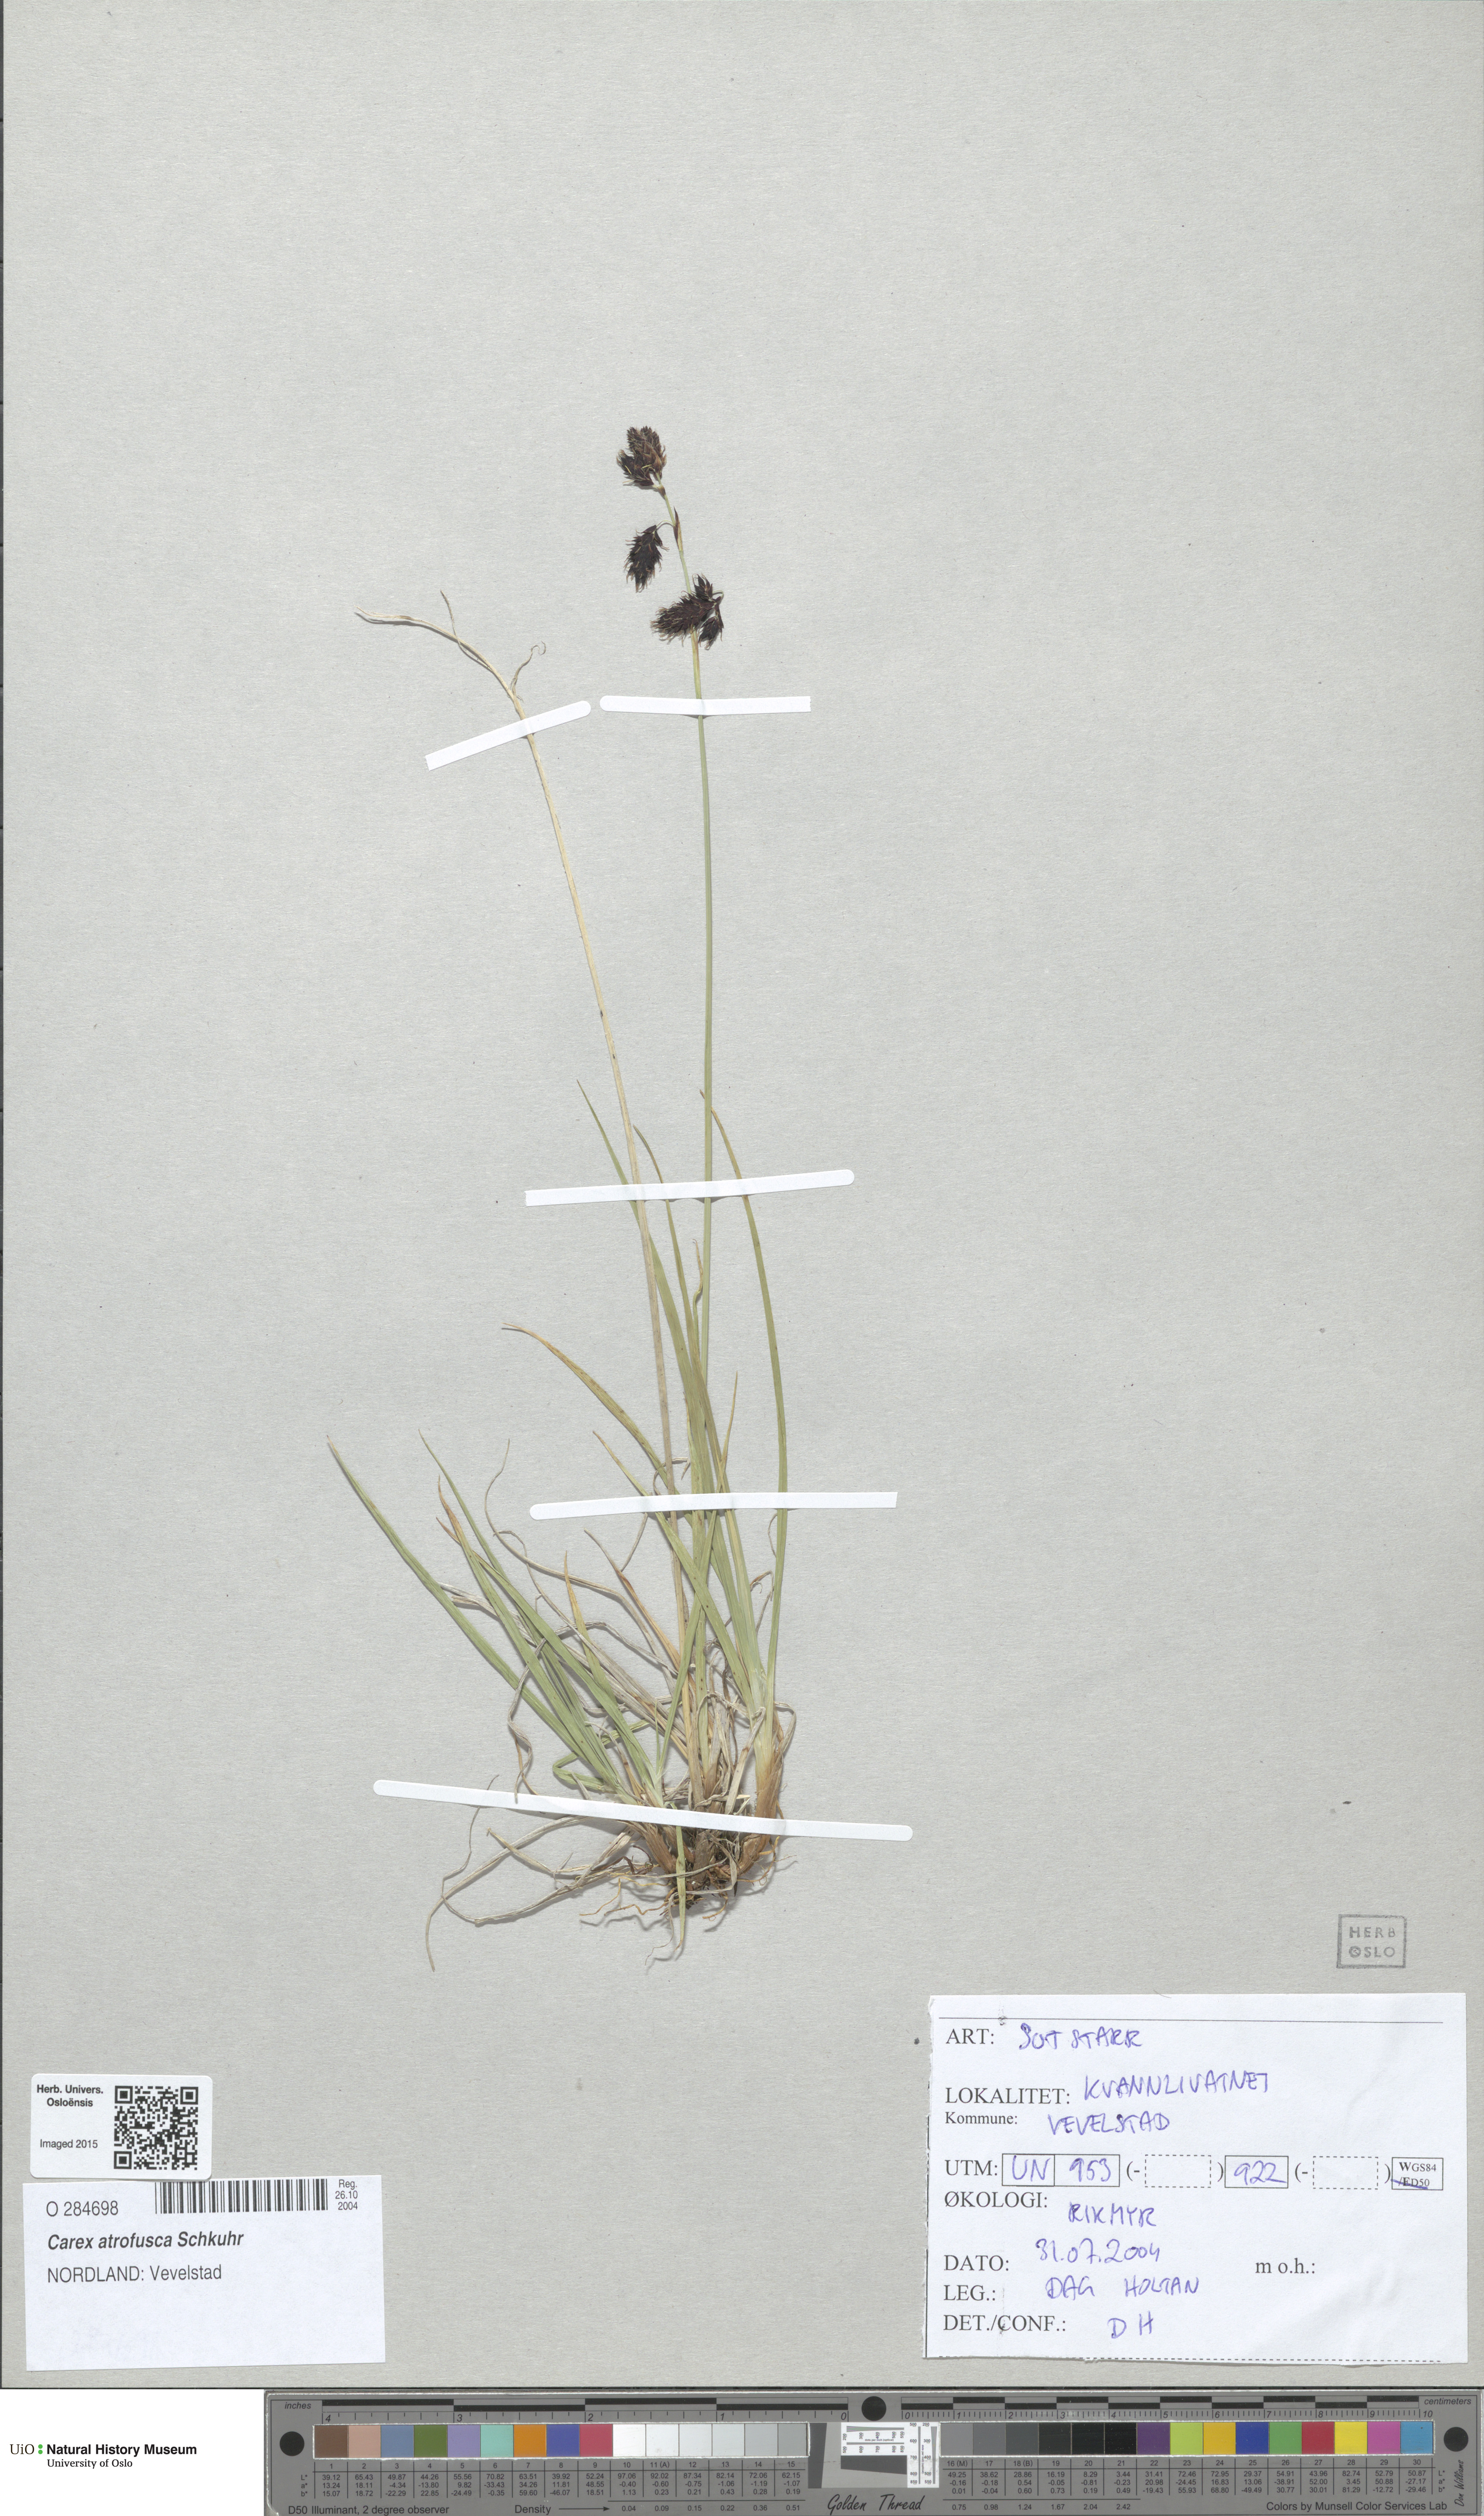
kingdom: Plantae
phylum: Tracheophyta
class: Liliopsida
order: Poales
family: Cyperaceae
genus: Carex
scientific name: Carex atrofusca
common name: Scorched alpine-sedge
